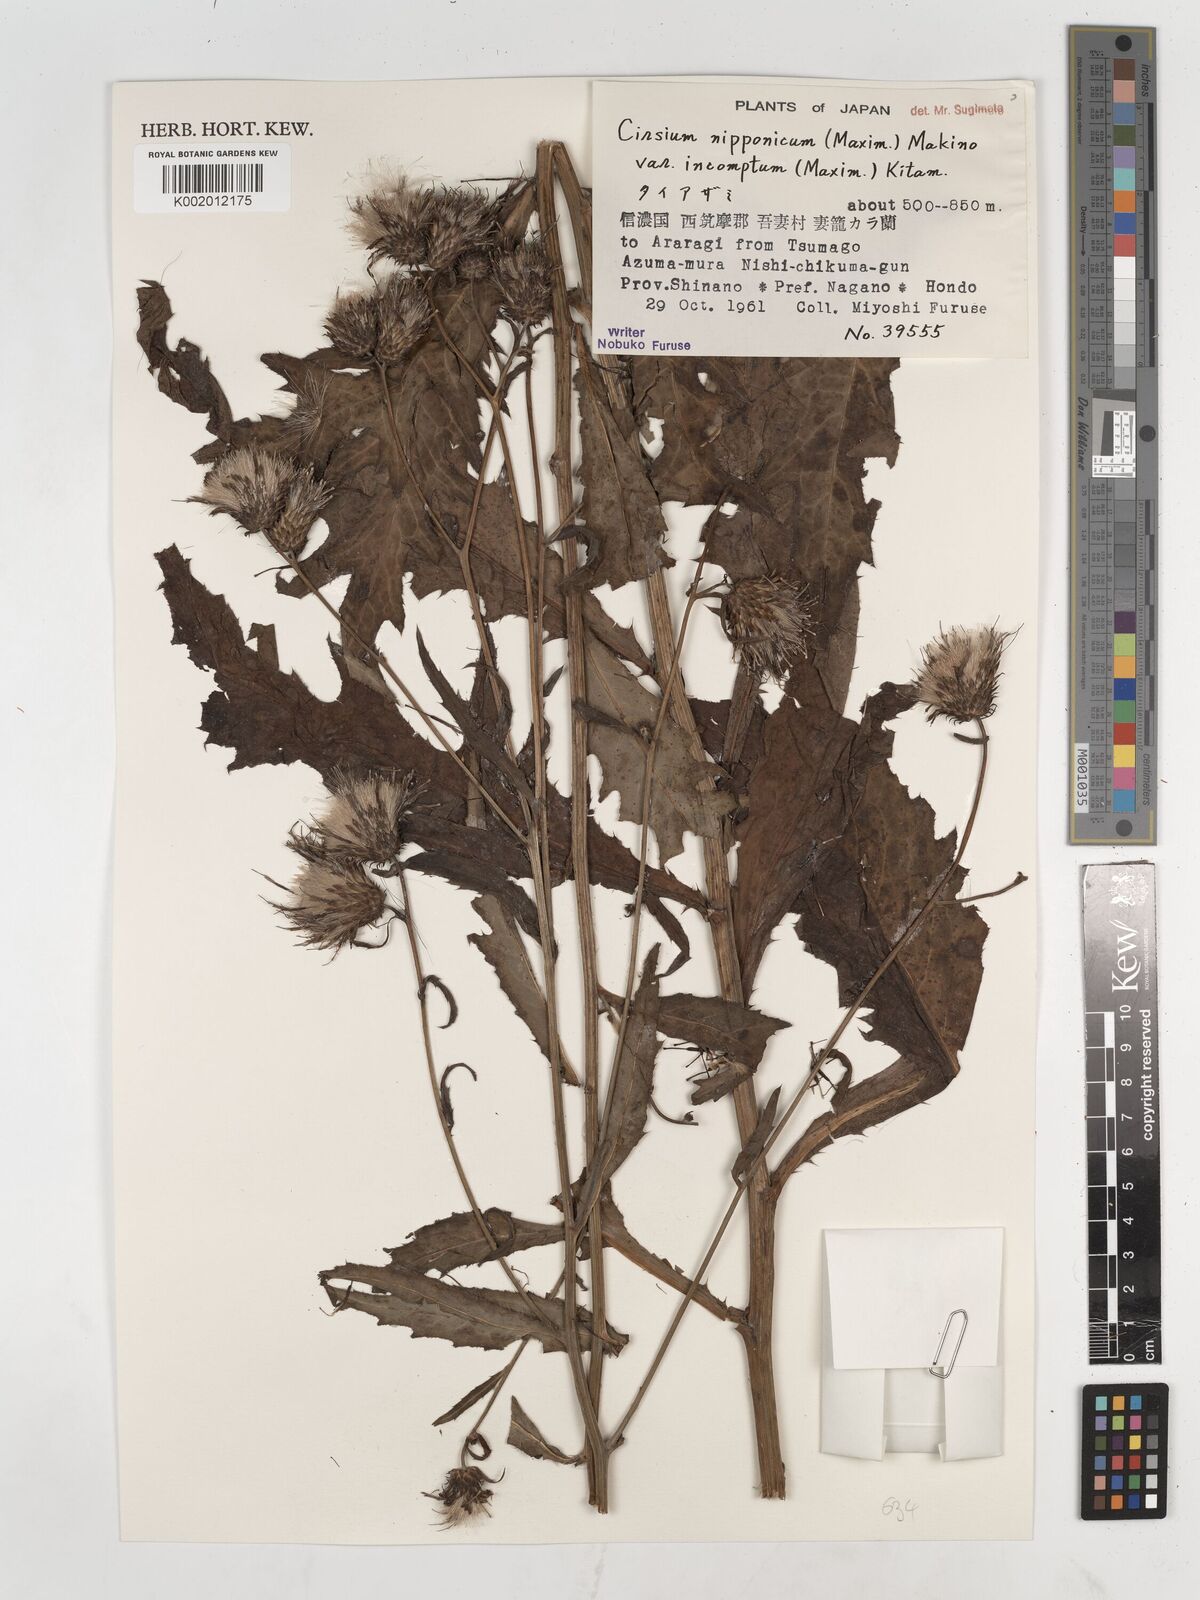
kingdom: Plantae
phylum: Tracheophyta
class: Magnoliopsida
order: Asterales
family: Asteraceae
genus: Cirsium
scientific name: Cirsium nipponicum
